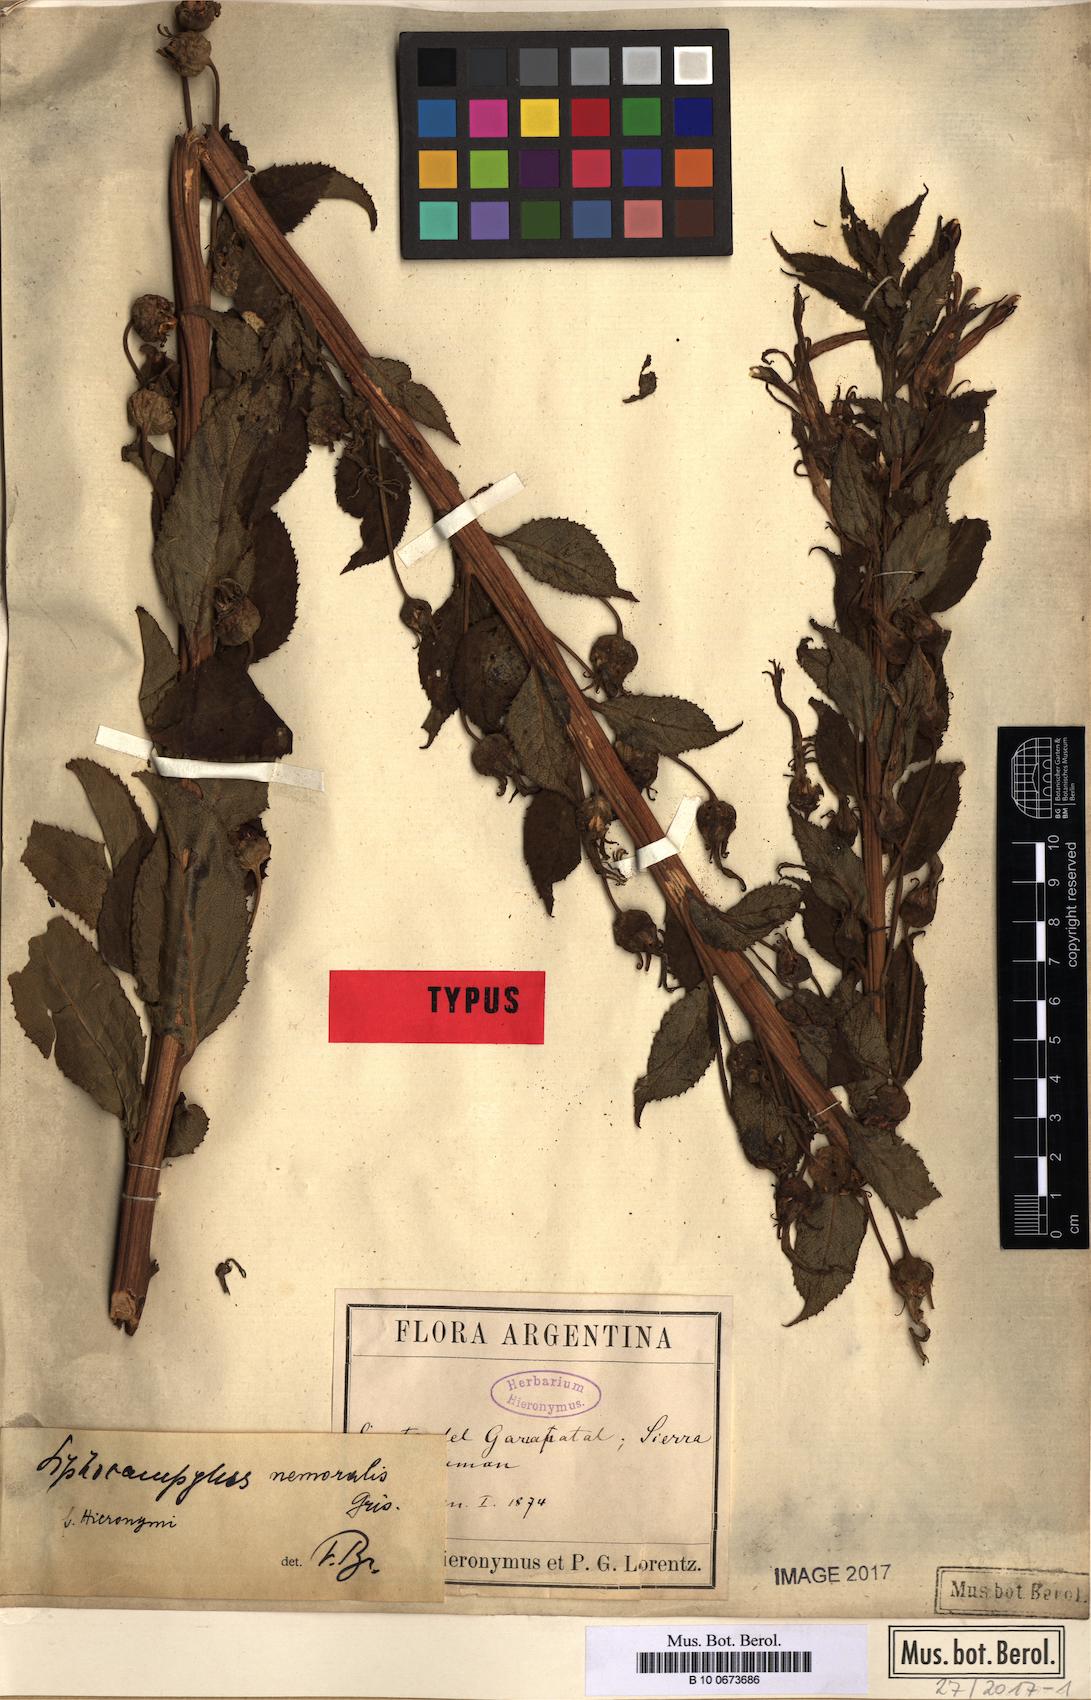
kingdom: Plantae
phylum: Tracheophyta
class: Magnoliopsida
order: Asterales
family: Campanulaceae
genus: Siphocampylus
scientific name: Siphocampylus nemoralis
